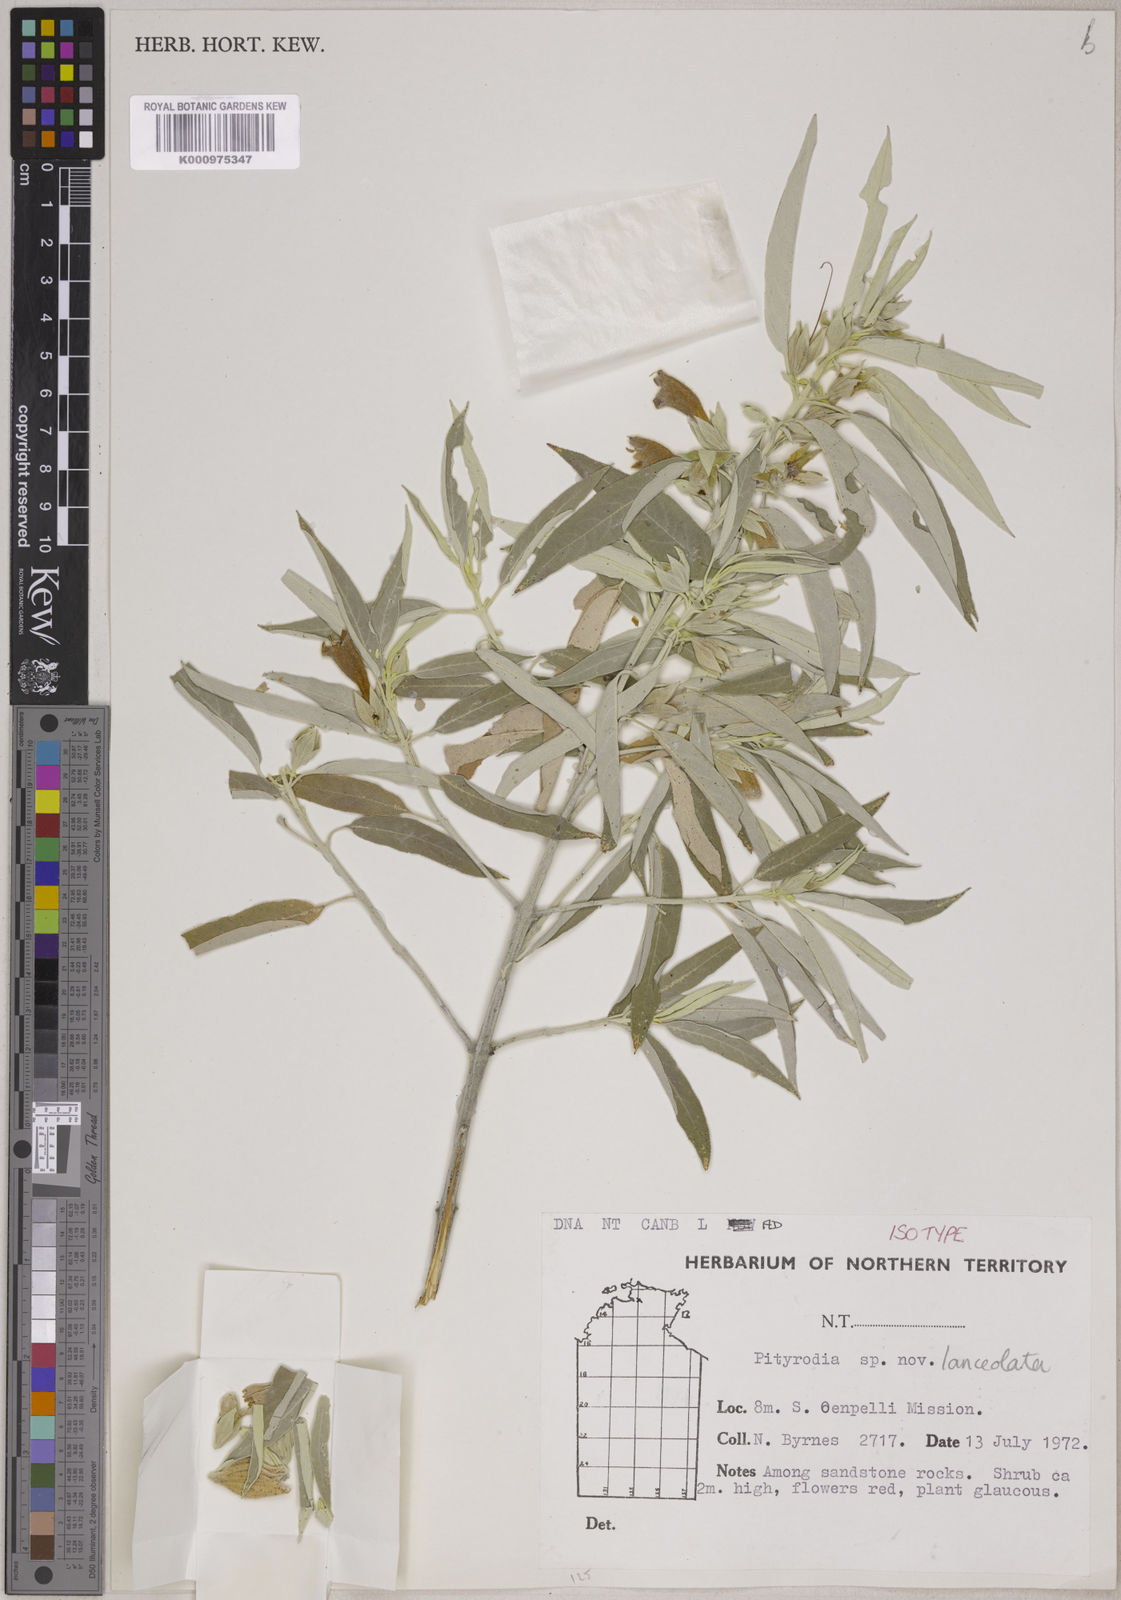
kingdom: Plantae
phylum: Tracheophyta
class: Magnoliopsida
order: Lamiales
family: Lamiaceae
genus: Muniria
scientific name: Muniria lanceolata
